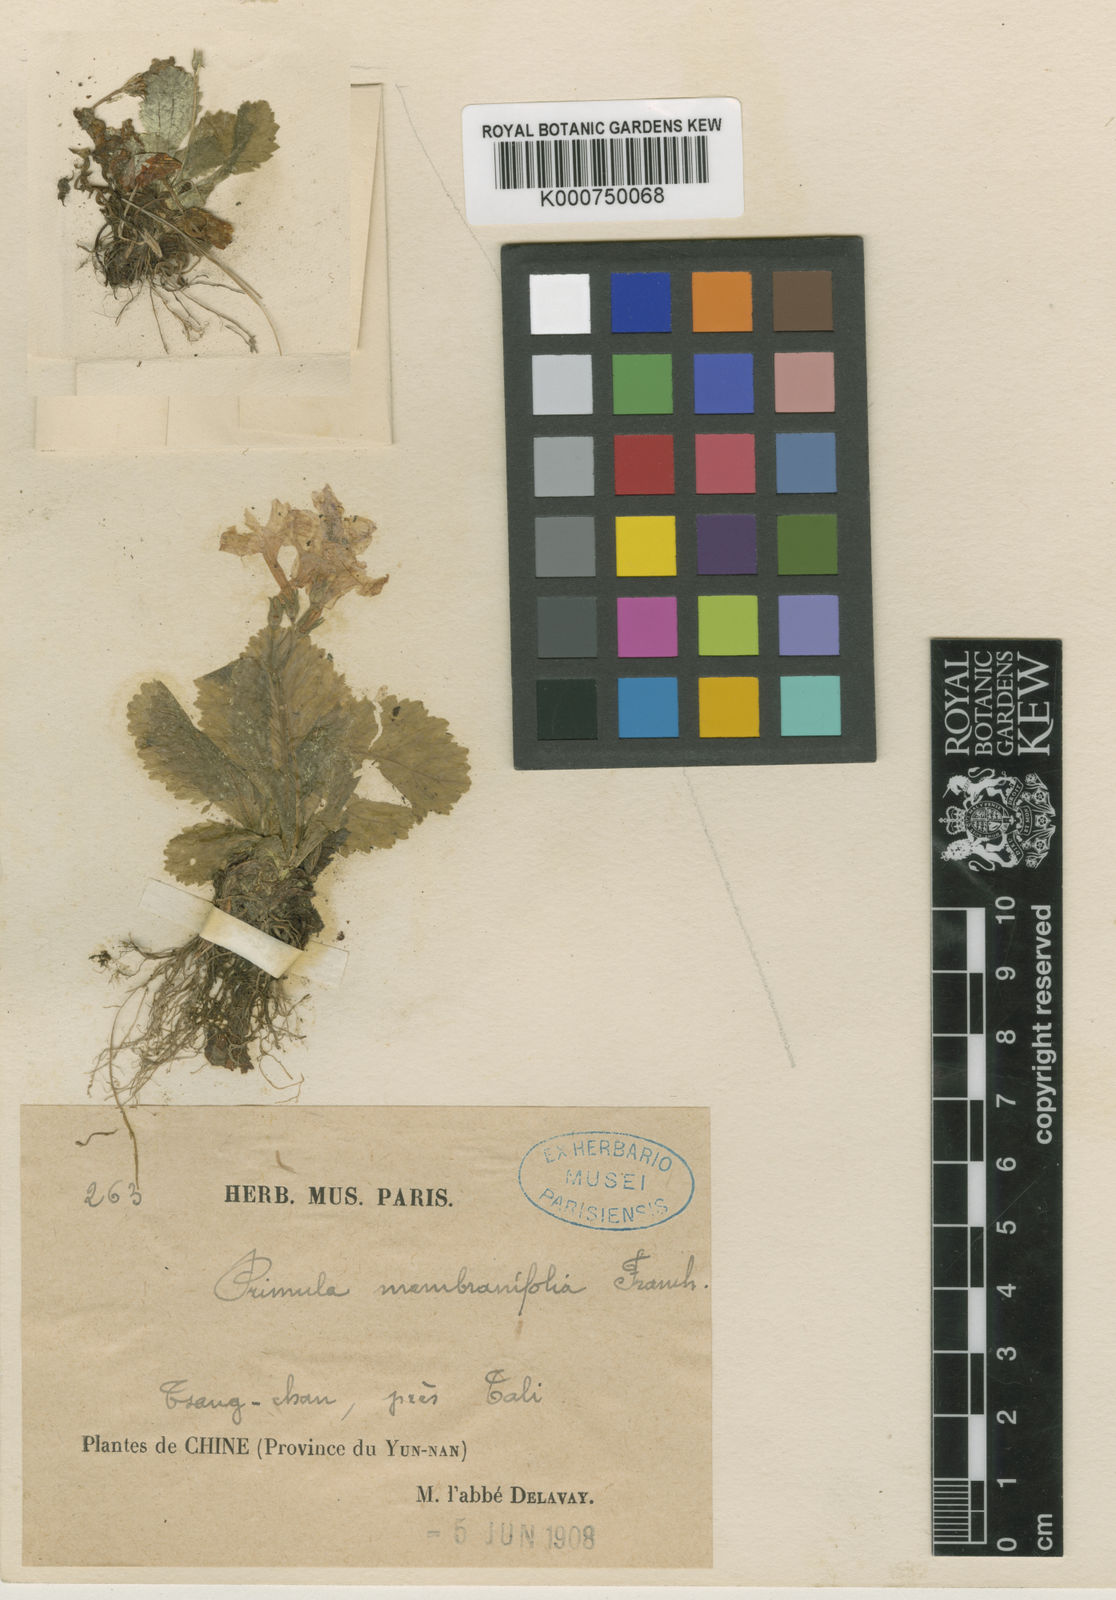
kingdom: Plantae
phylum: Tracheophyta
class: Magnoliopsida
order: Ericales
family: Primulaceae
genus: Primula
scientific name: Primula yunnanensis
